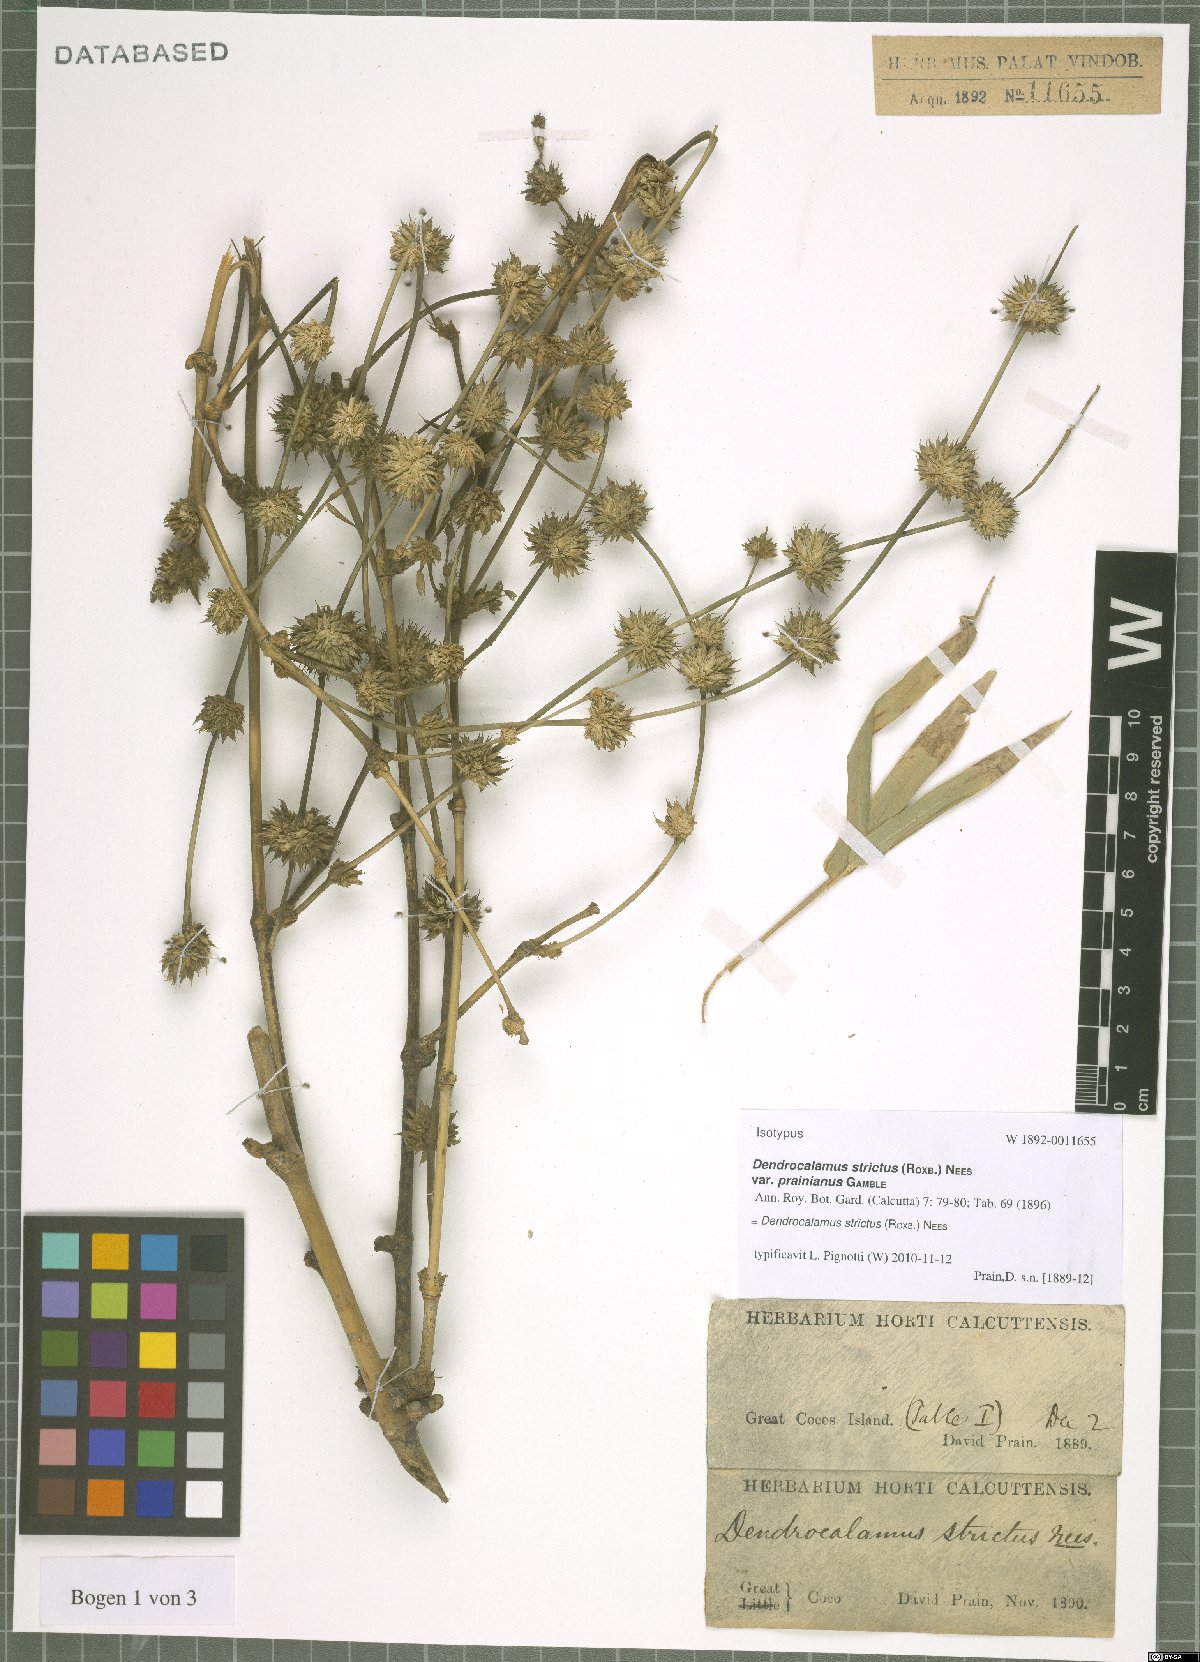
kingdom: Plantae
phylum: Tracheophyta
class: Liliopsida
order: Poales
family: Poaceae
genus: Dendrocalamus
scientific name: Dendrocalamus strictus
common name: Male bamboo
